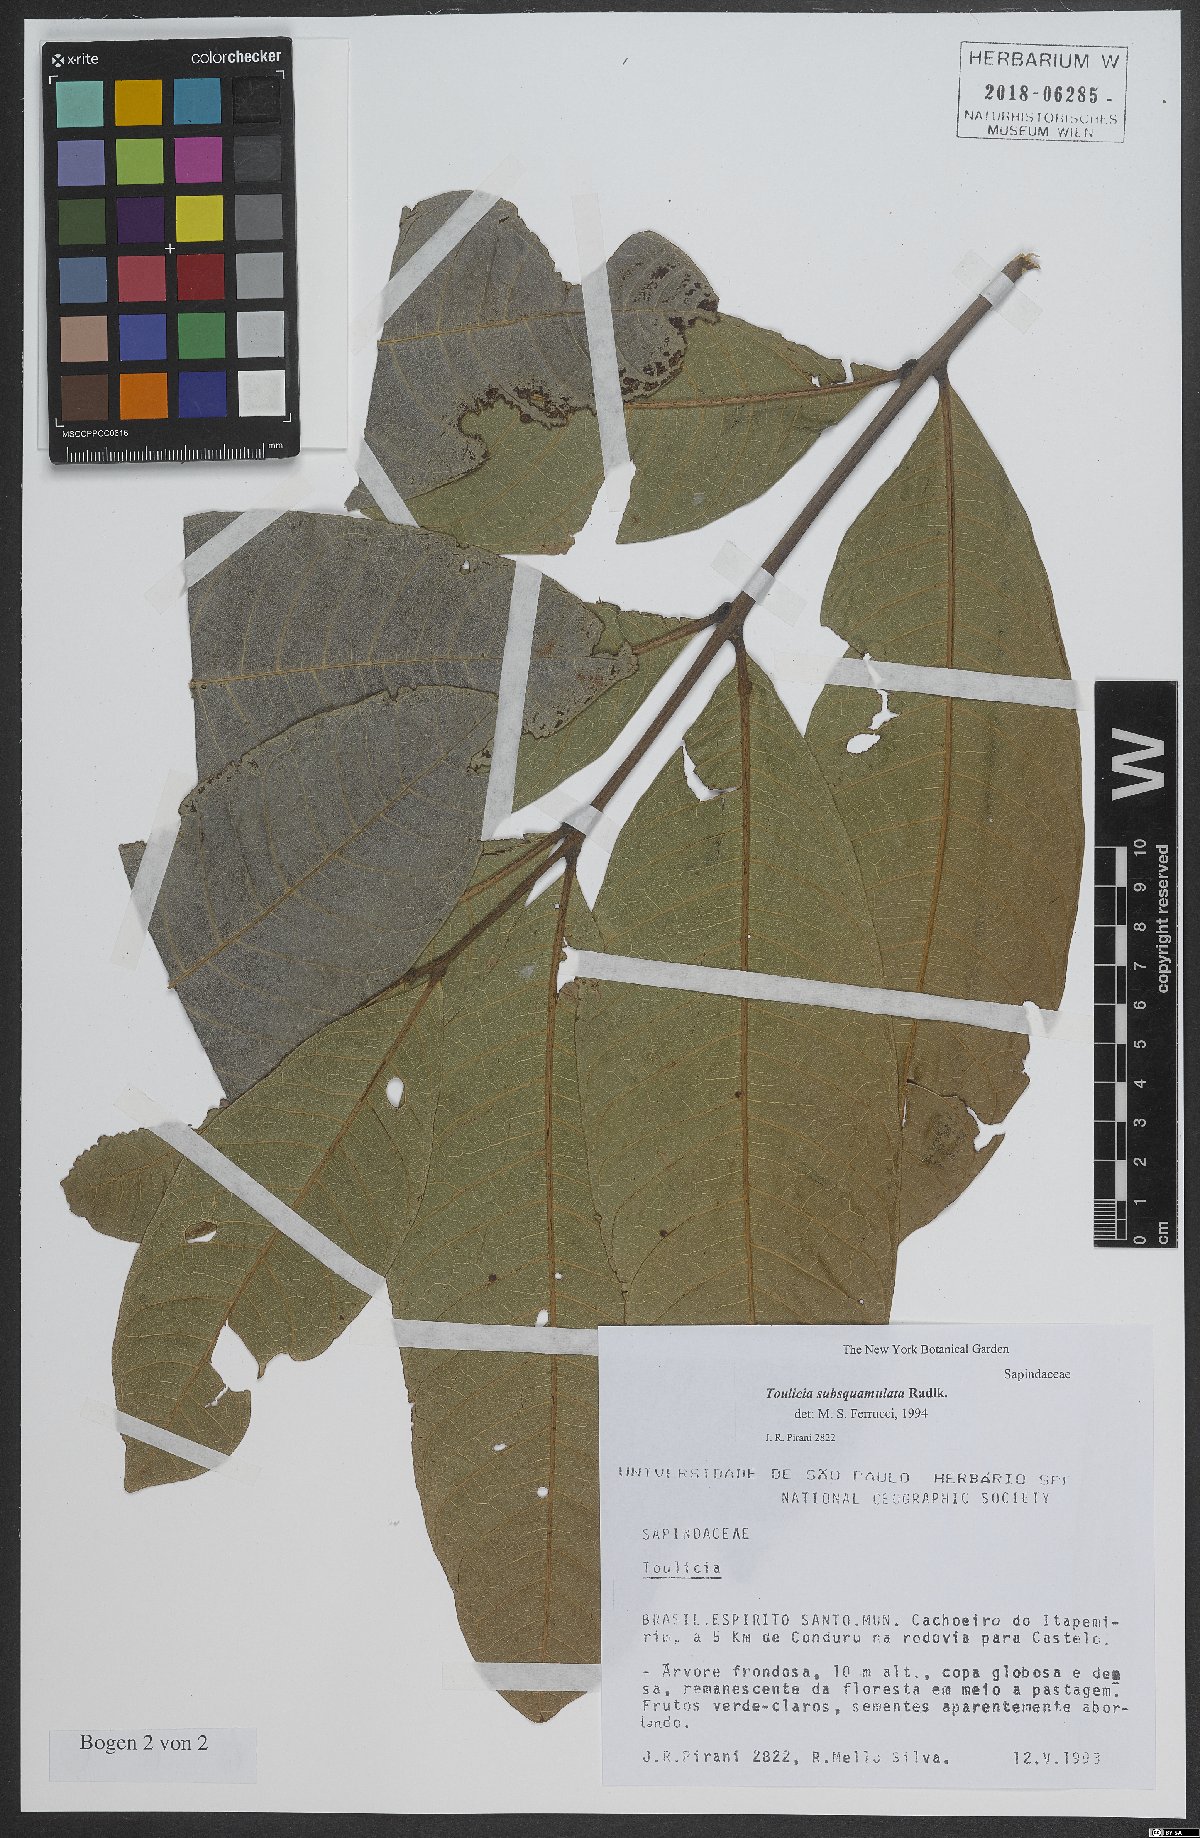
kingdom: Plantae
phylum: Tracheophyta
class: Magnoliopsida
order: Sapindales
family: Sapindaceae
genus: Toulicia
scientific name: Toulicia subsquamulata
